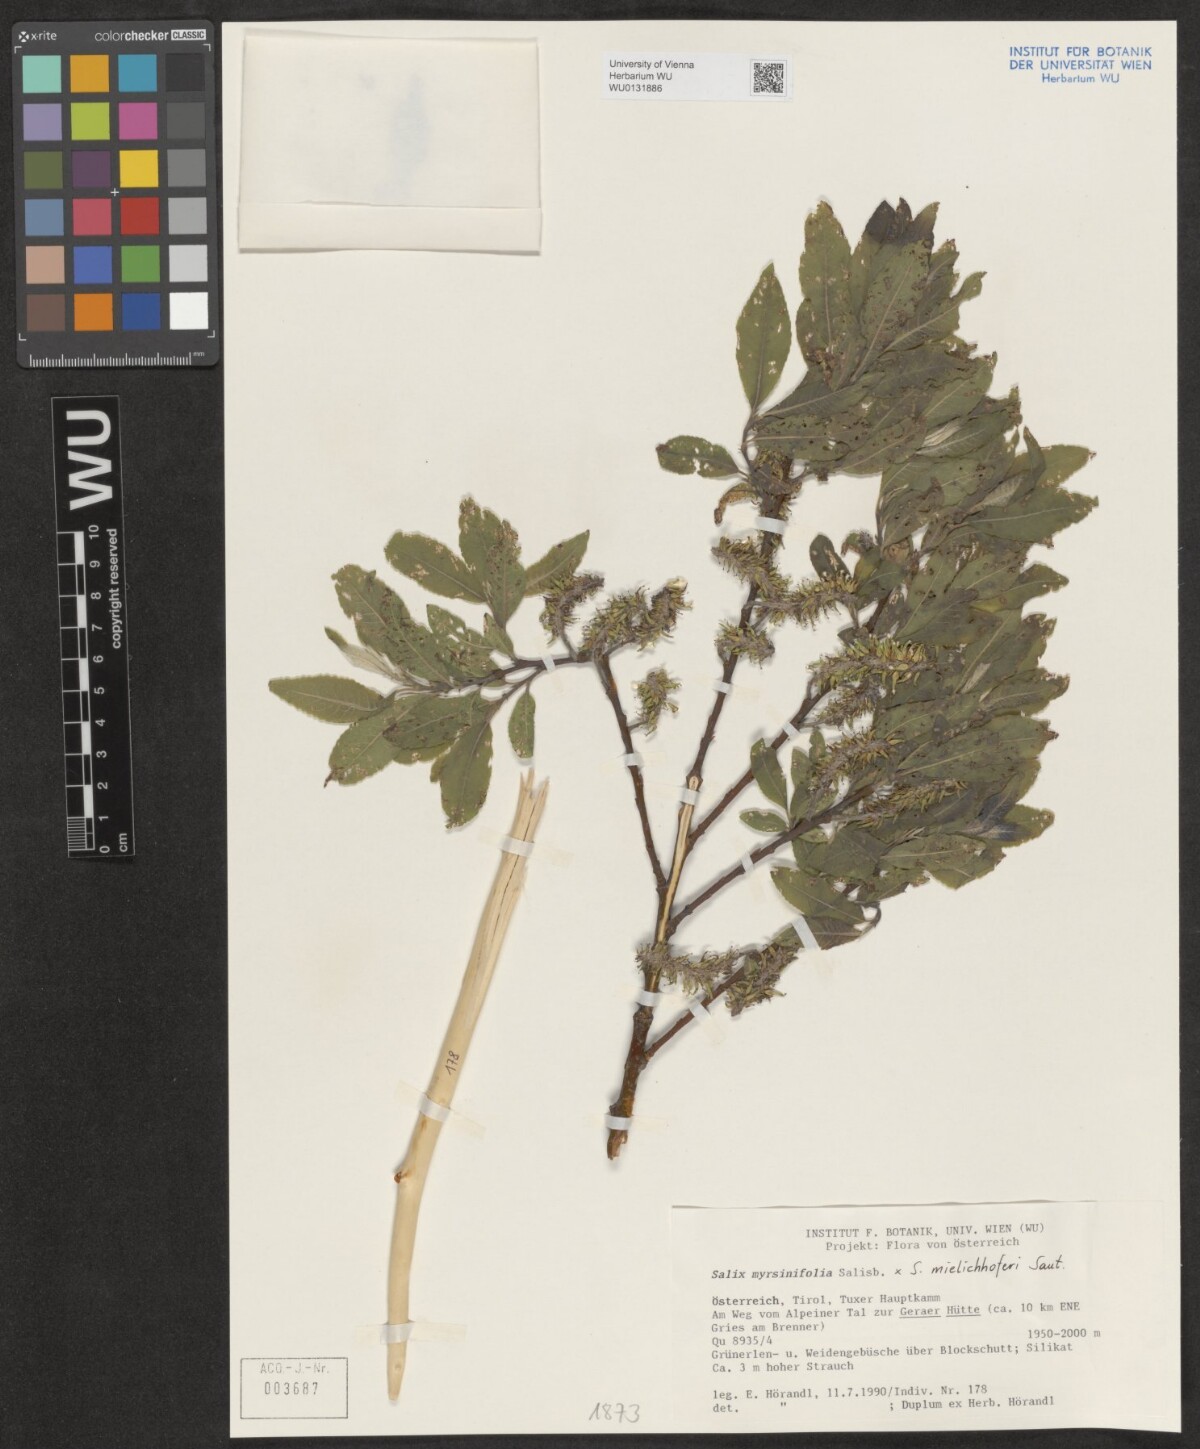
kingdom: Plantae
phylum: Tracheophyta
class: Magnoliopsida
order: Malpighiales
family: Salicaceae
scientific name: Salicaceae
